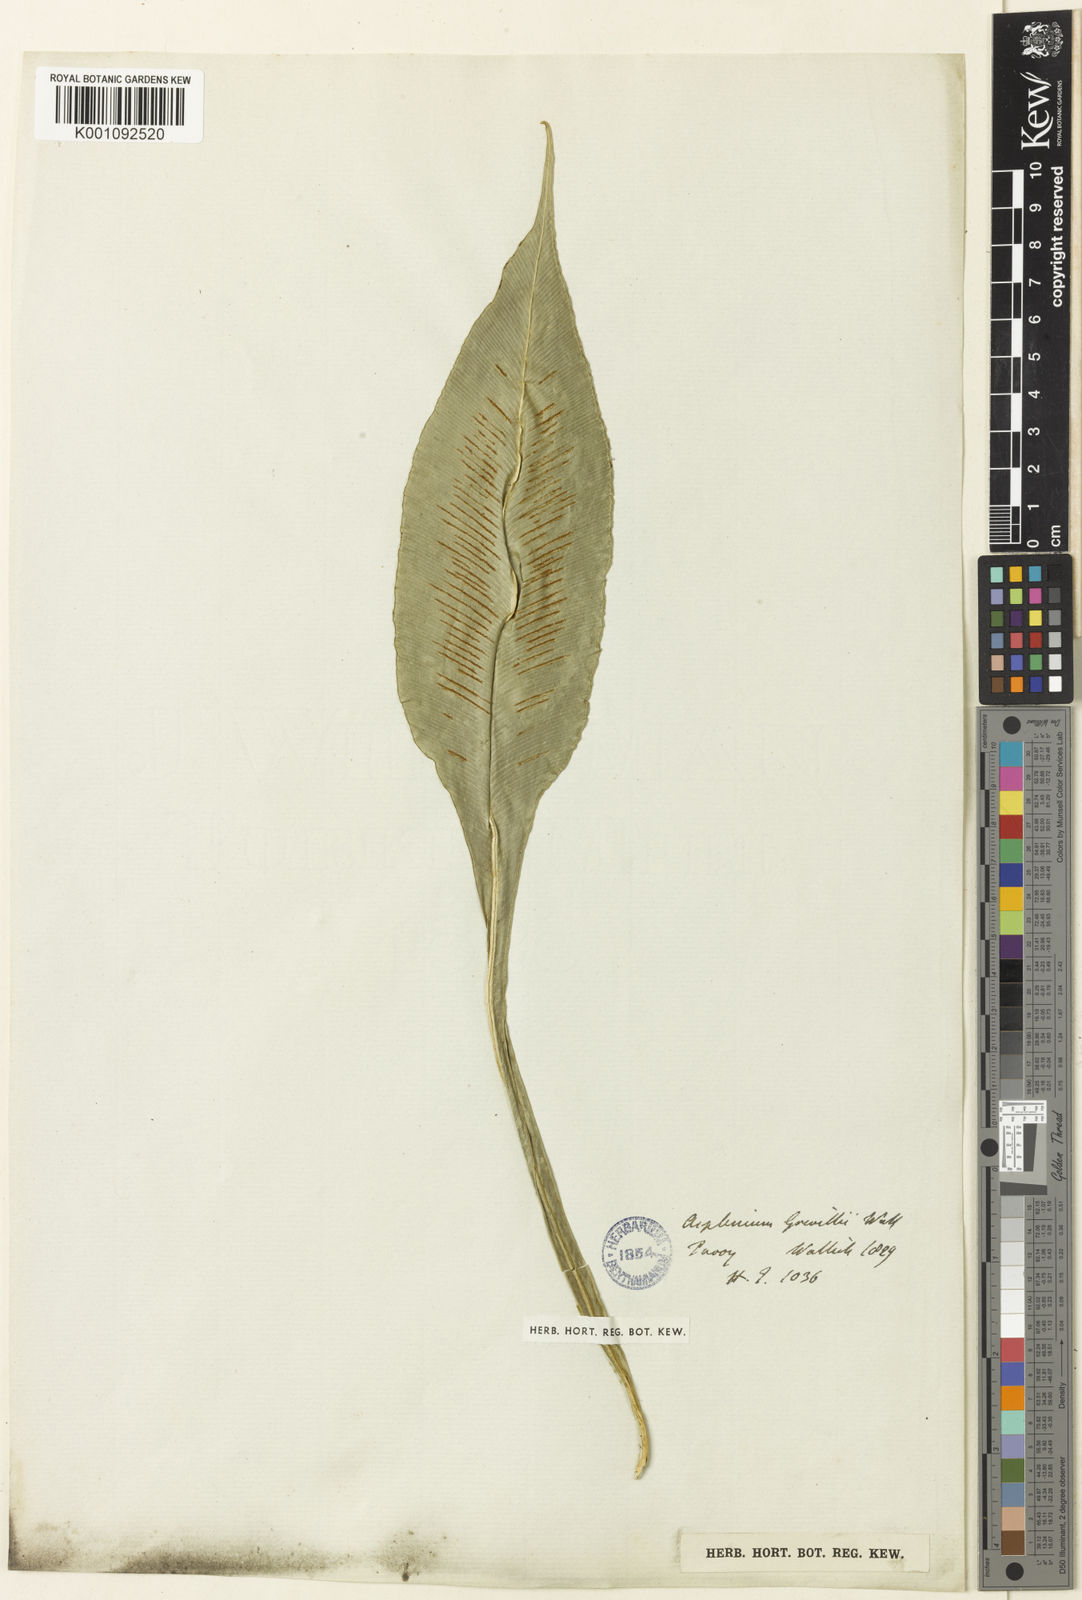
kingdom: Plantae
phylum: Tracheophyta
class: Polypodiopsida
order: Polypodiales
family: Aspleniaceae
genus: Asplenium
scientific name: Asplenium grevillei
